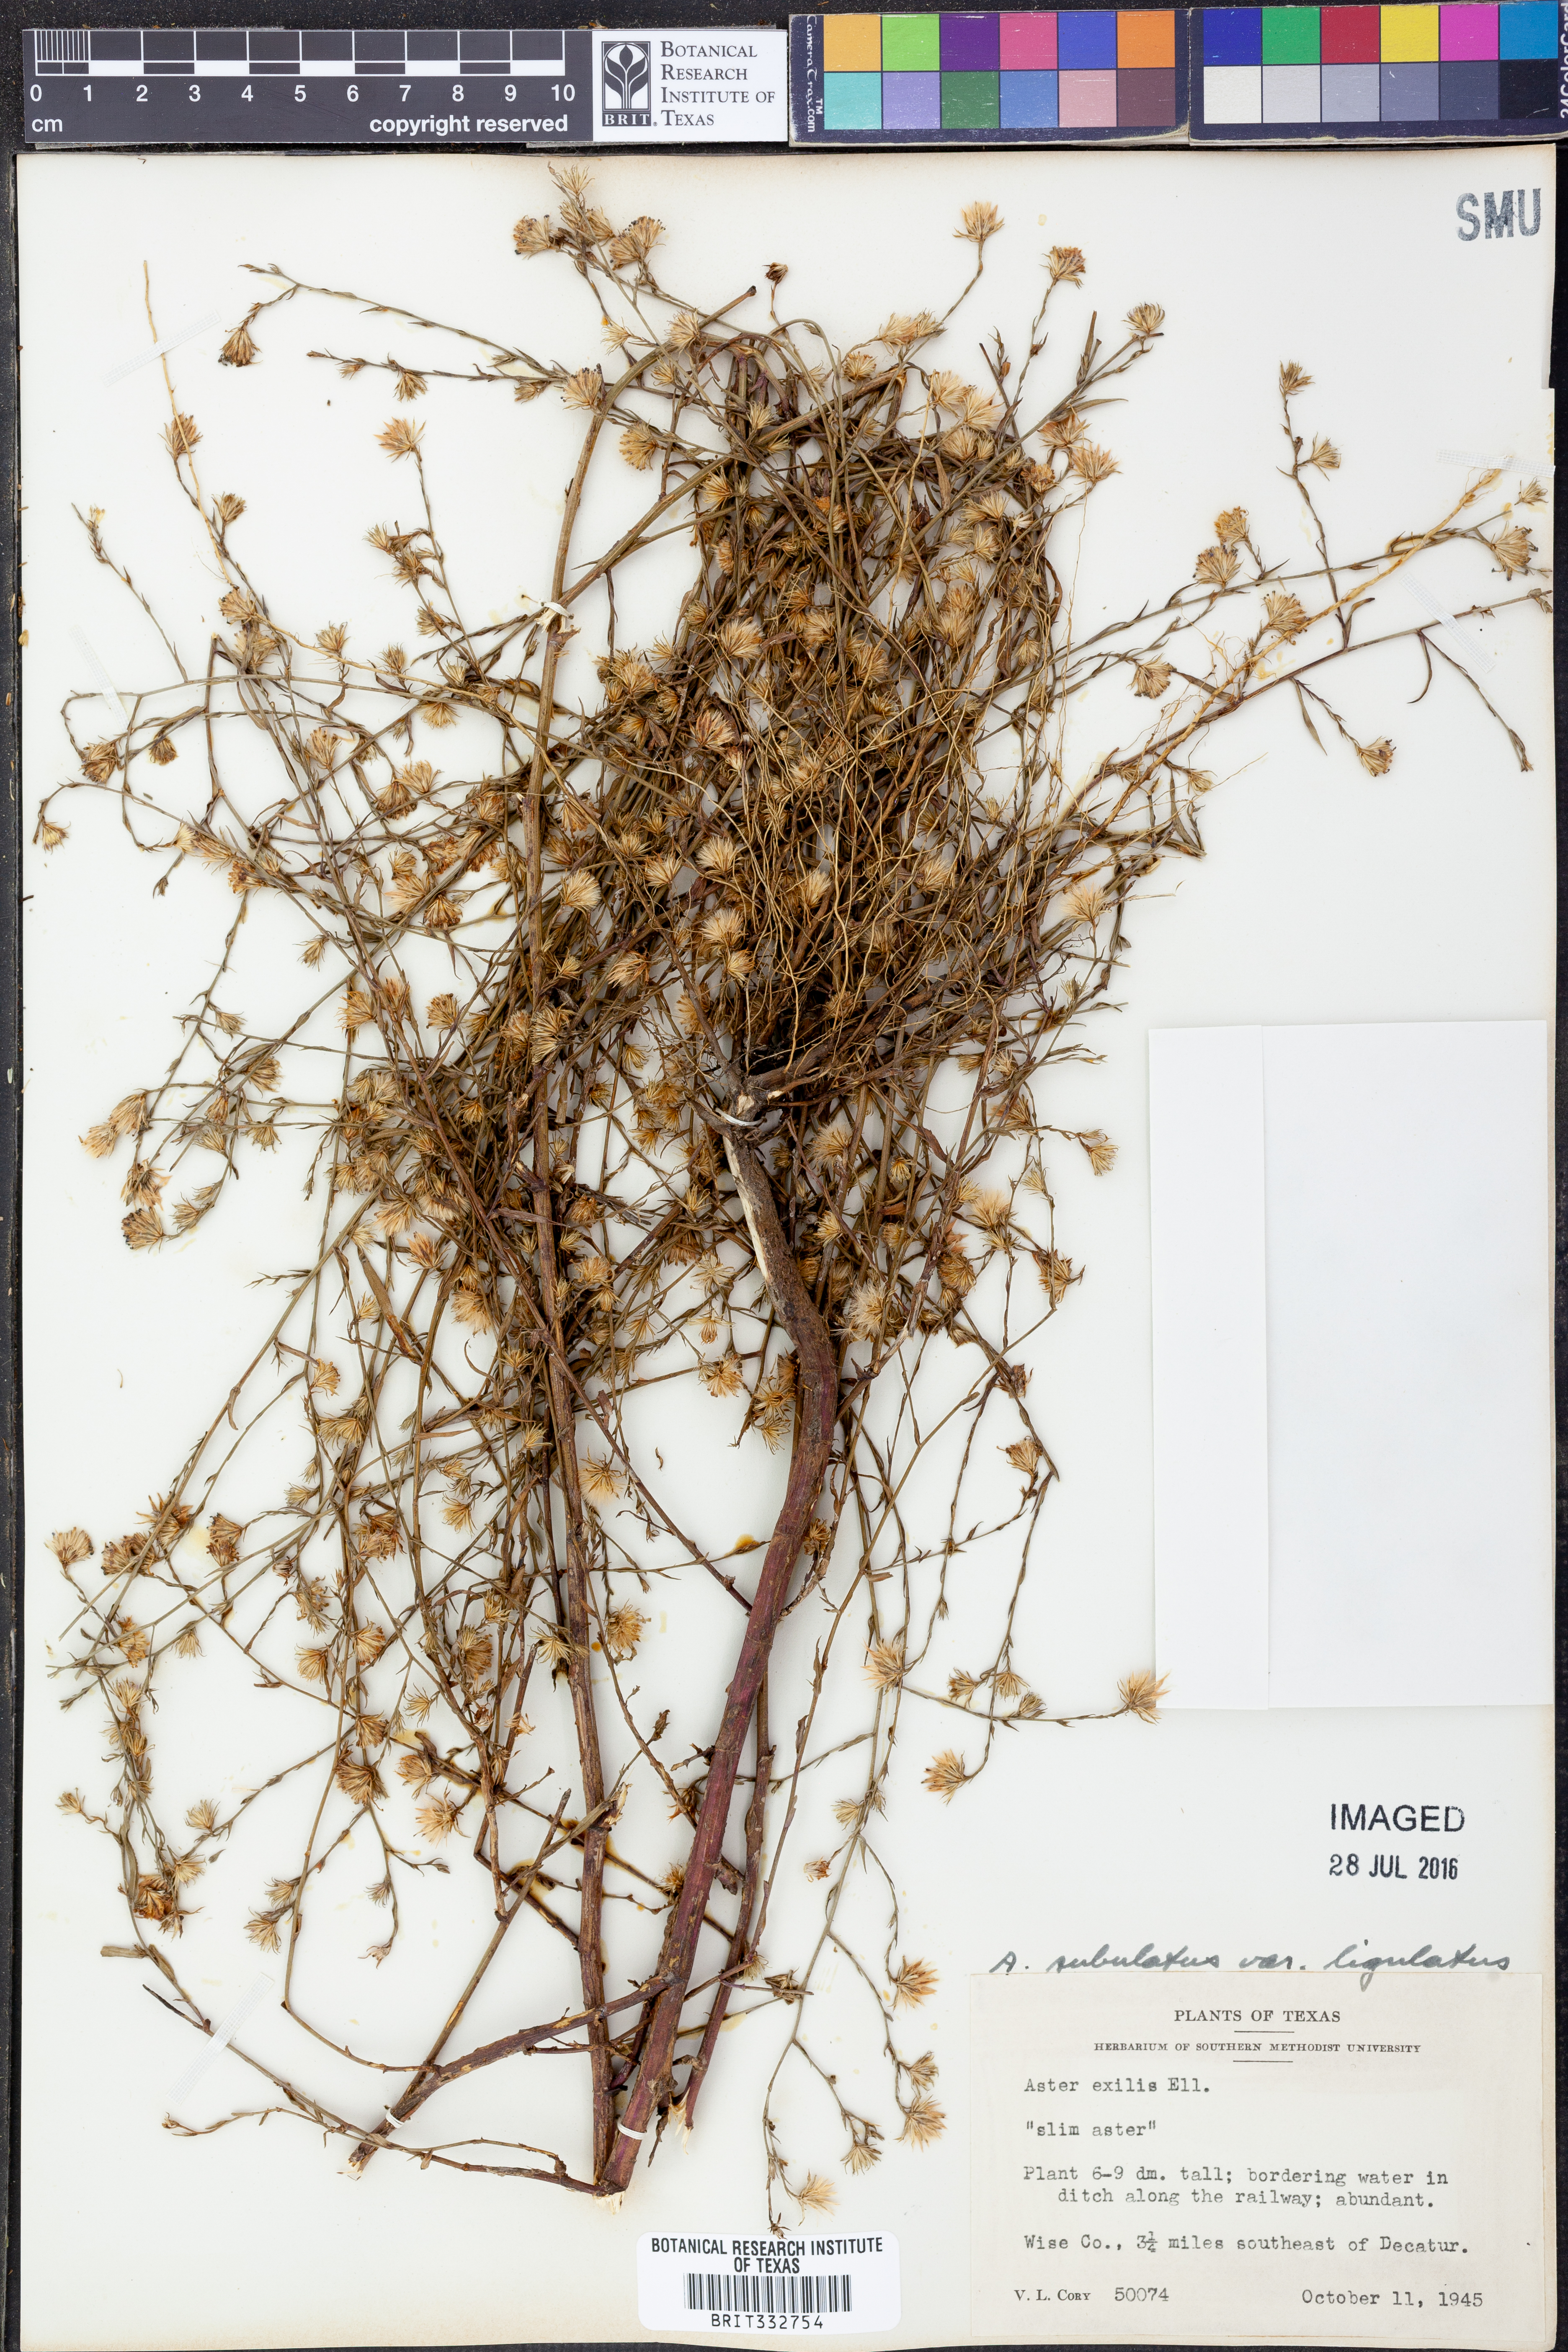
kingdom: Plantae
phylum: Tracheophyta
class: Magnoliopsida
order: Asterales
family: Asteraceae
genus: Symphyotrichum
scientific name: Symphyotrichum divaricatum
